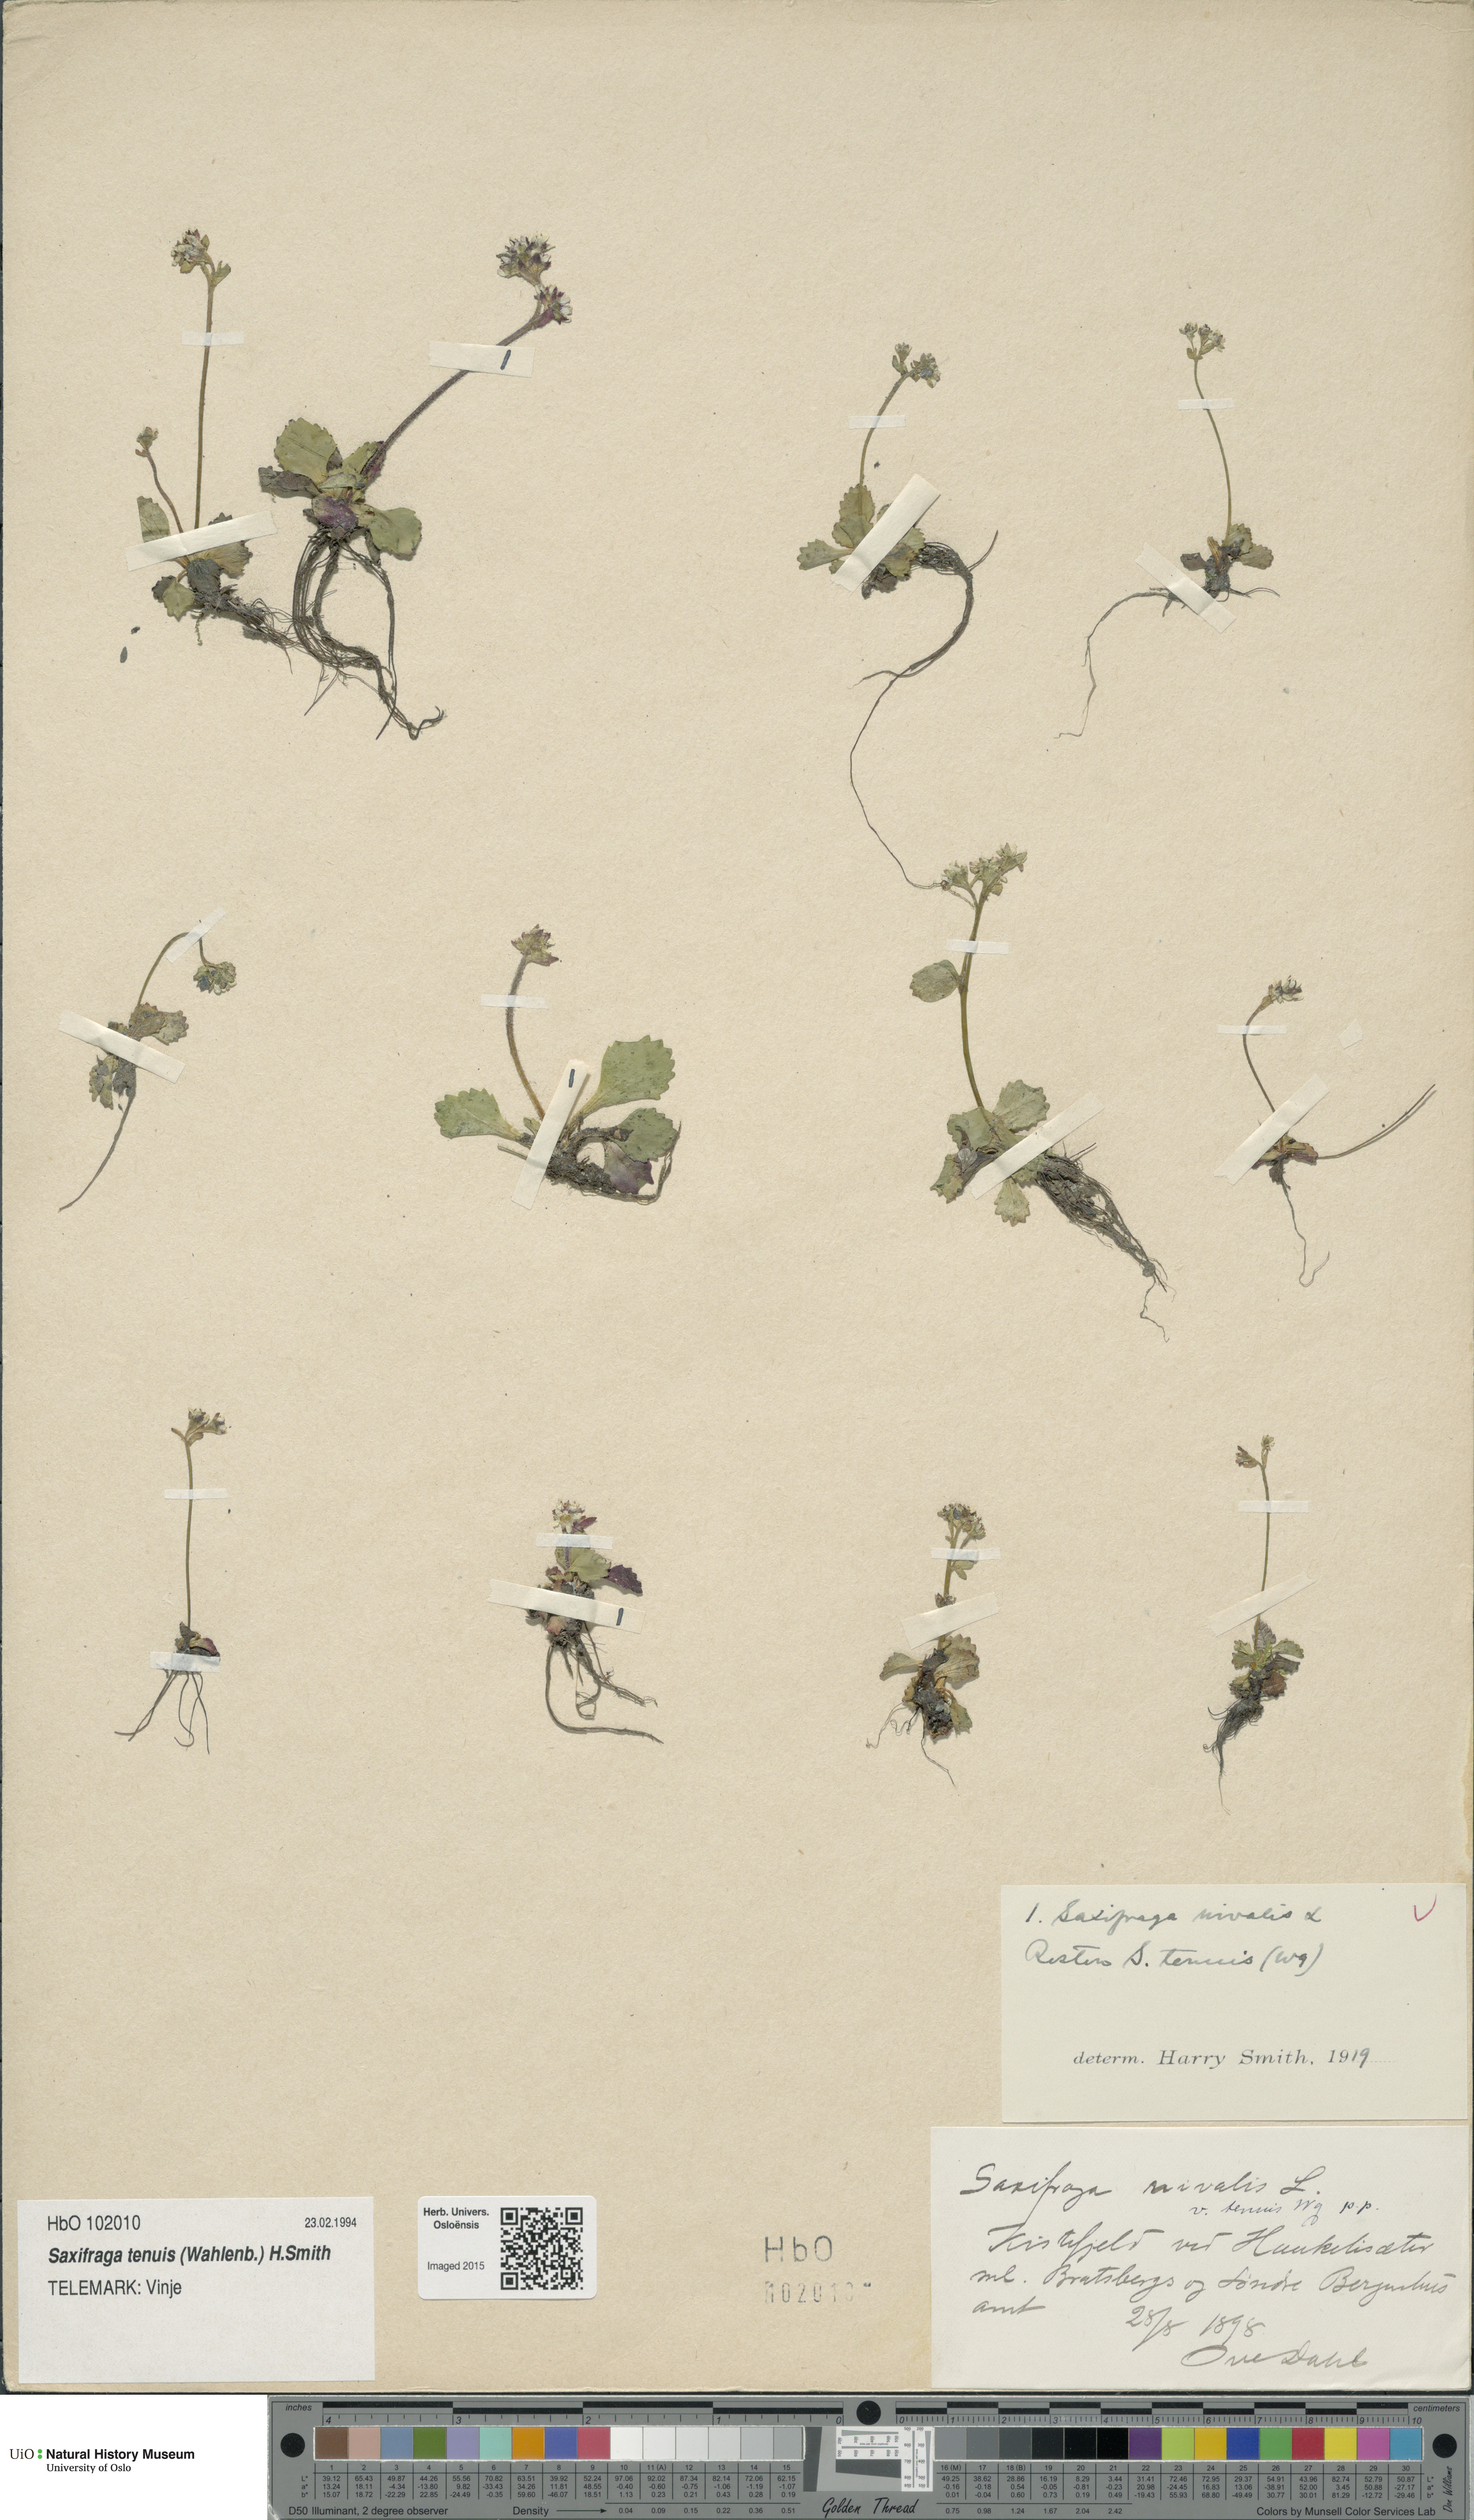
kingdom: Plantae
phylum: Tracheophyta
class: Magnoliopsida
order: Saxifragales
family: Saxifragaceae
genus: Micranthes
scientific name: Micranthes tenuis
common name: Ottertail pass saxifrage
